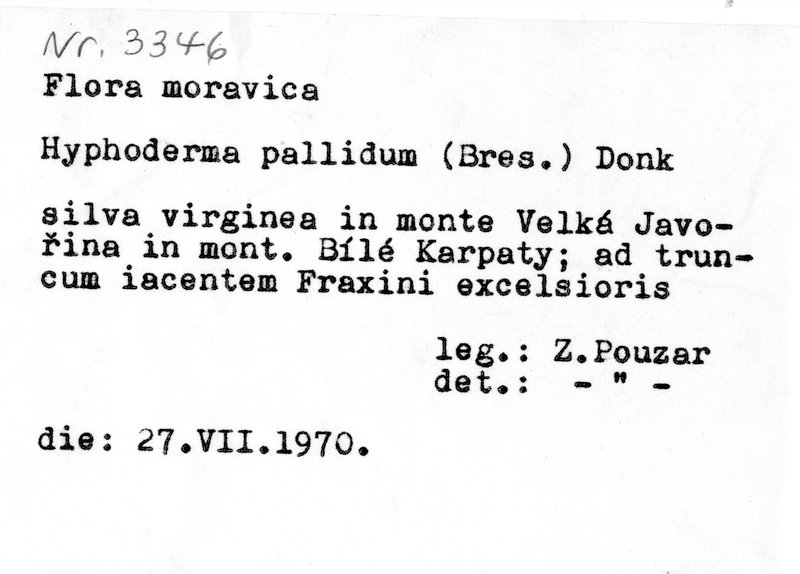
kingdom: Plantae
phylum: Tracheophyta
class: Magnoliopsida
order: Lamiales
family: Oleaceae
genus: Fraxinus
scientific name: Fraxinus excelsior
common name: European ash
